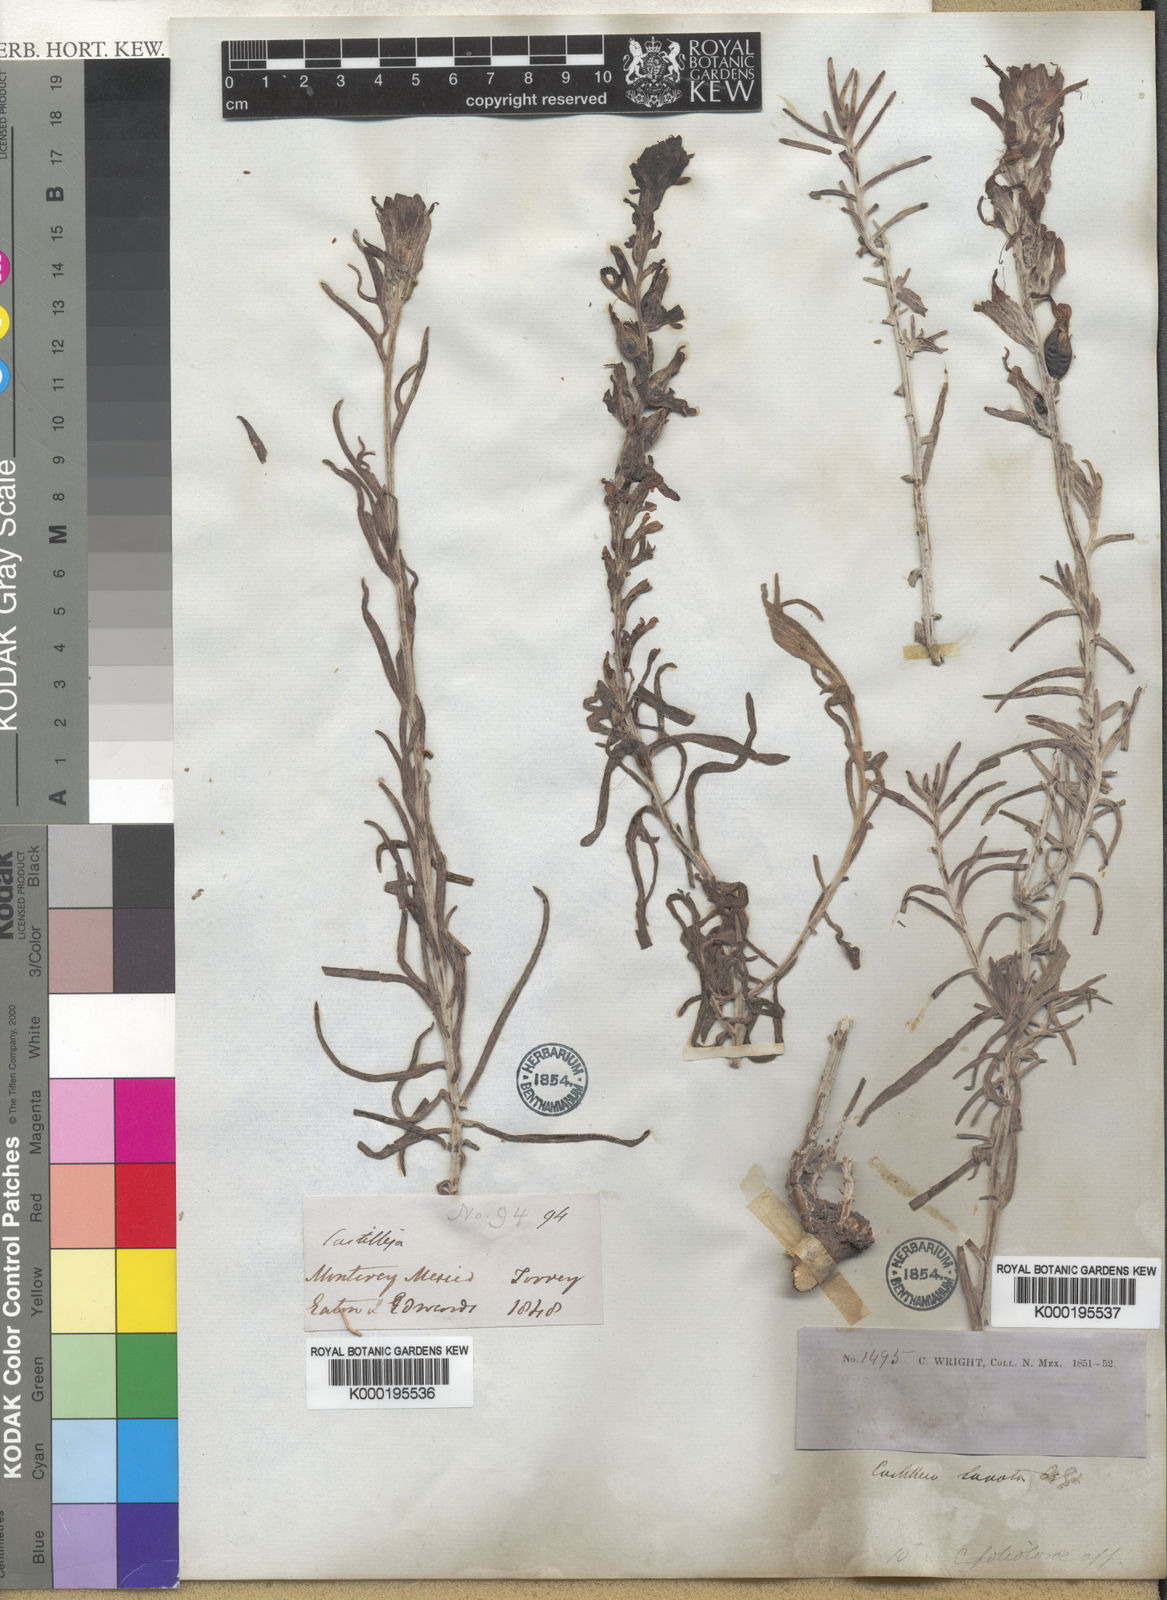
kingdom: Plantae
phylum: Tracheophyta
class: Magnoliopsida
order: Lamiales
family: Orobanchaceae
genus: Castilleja
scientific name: Castilleja lanata
